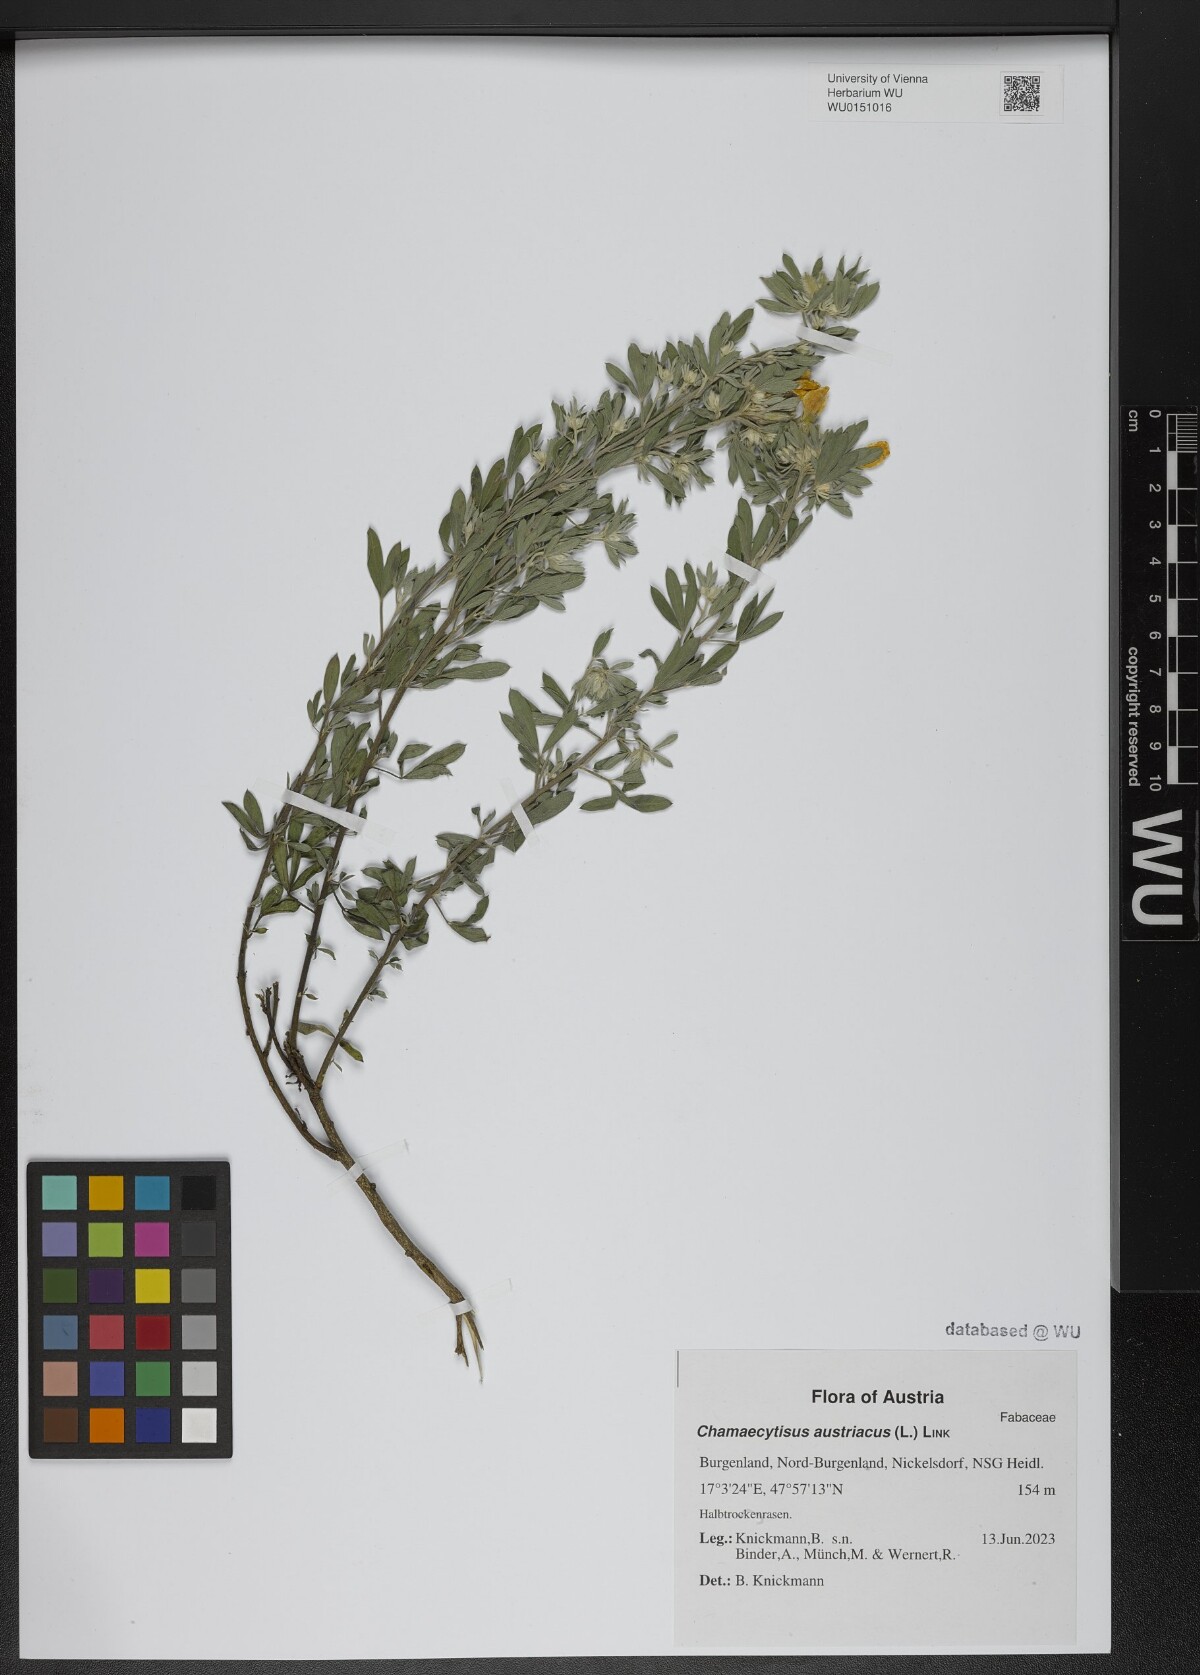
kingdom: Plantae
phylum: Tracheophyta
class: Magnoliopsida
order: Fabales
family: Fabaceae
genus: Chamaecytisus
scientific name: Chamaecytisus austriacus
